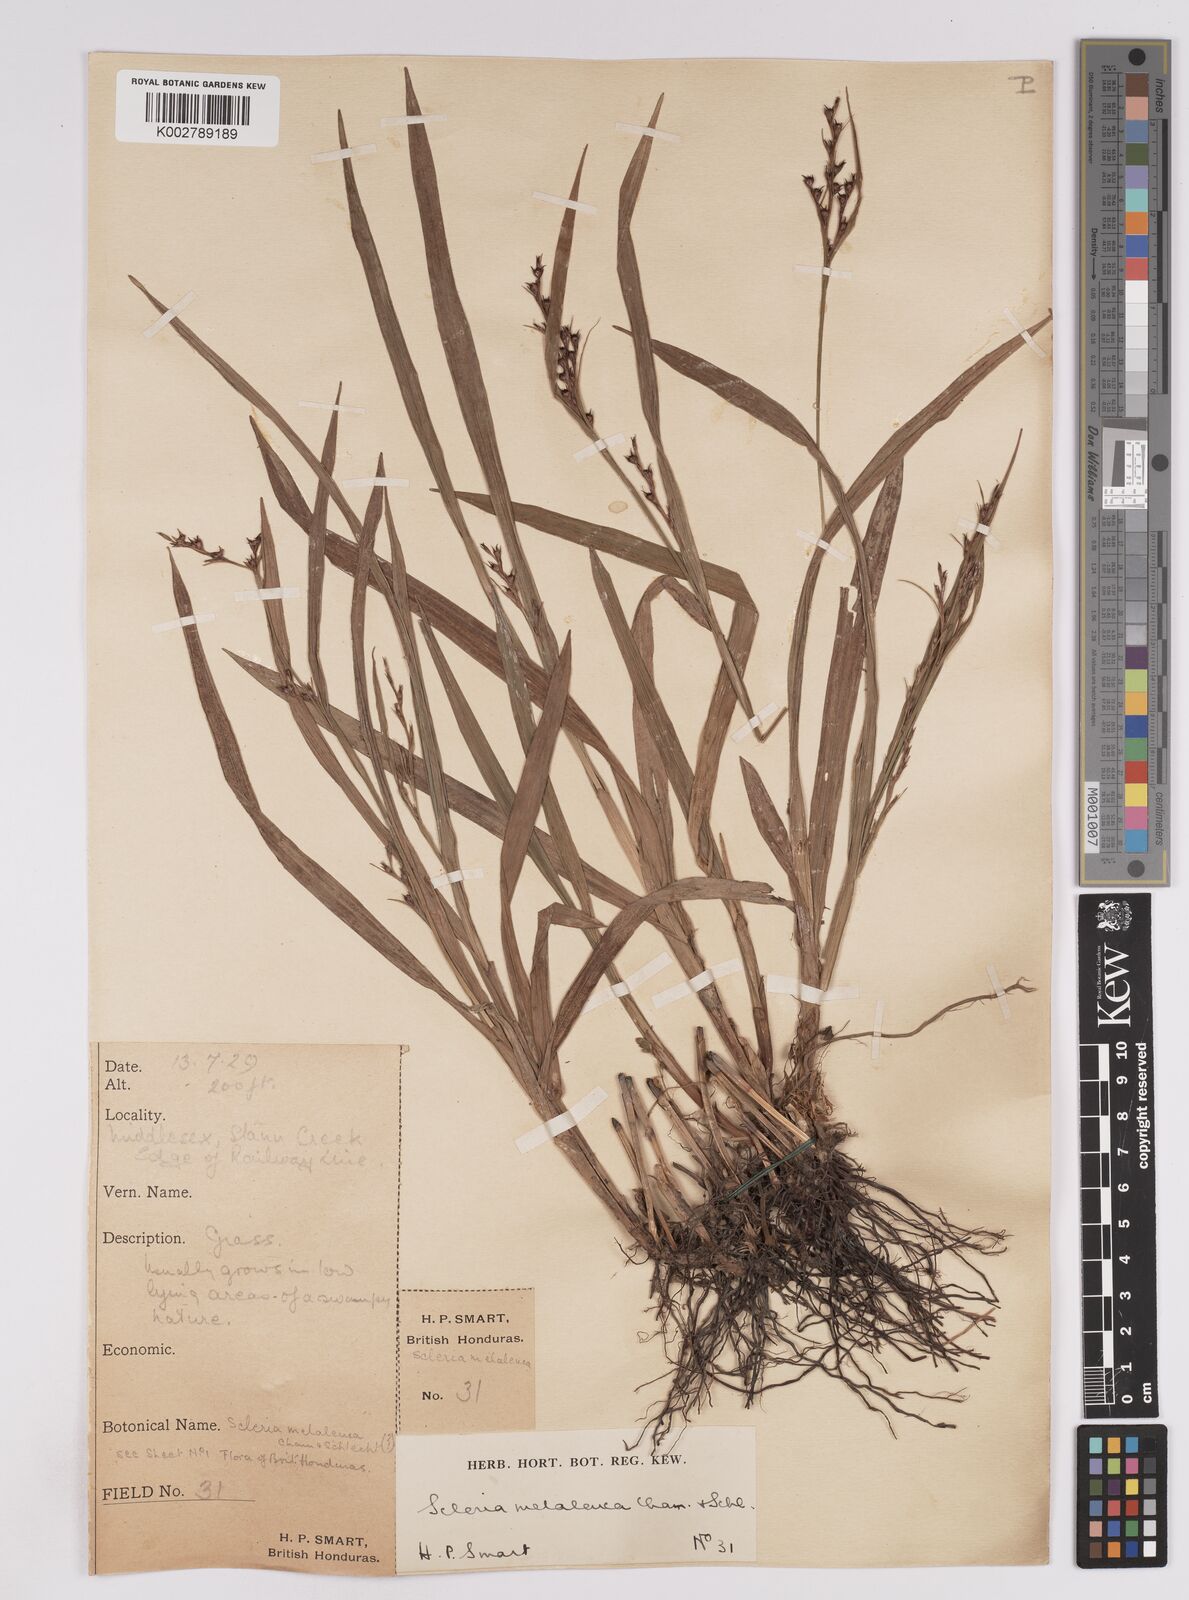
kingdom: Plantae
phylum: Tracheophyta
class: Liliopsida
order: Poales
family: Cyperaceae
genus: Scleria
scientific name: Scleria gaertneri
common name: Cortadera blanca
